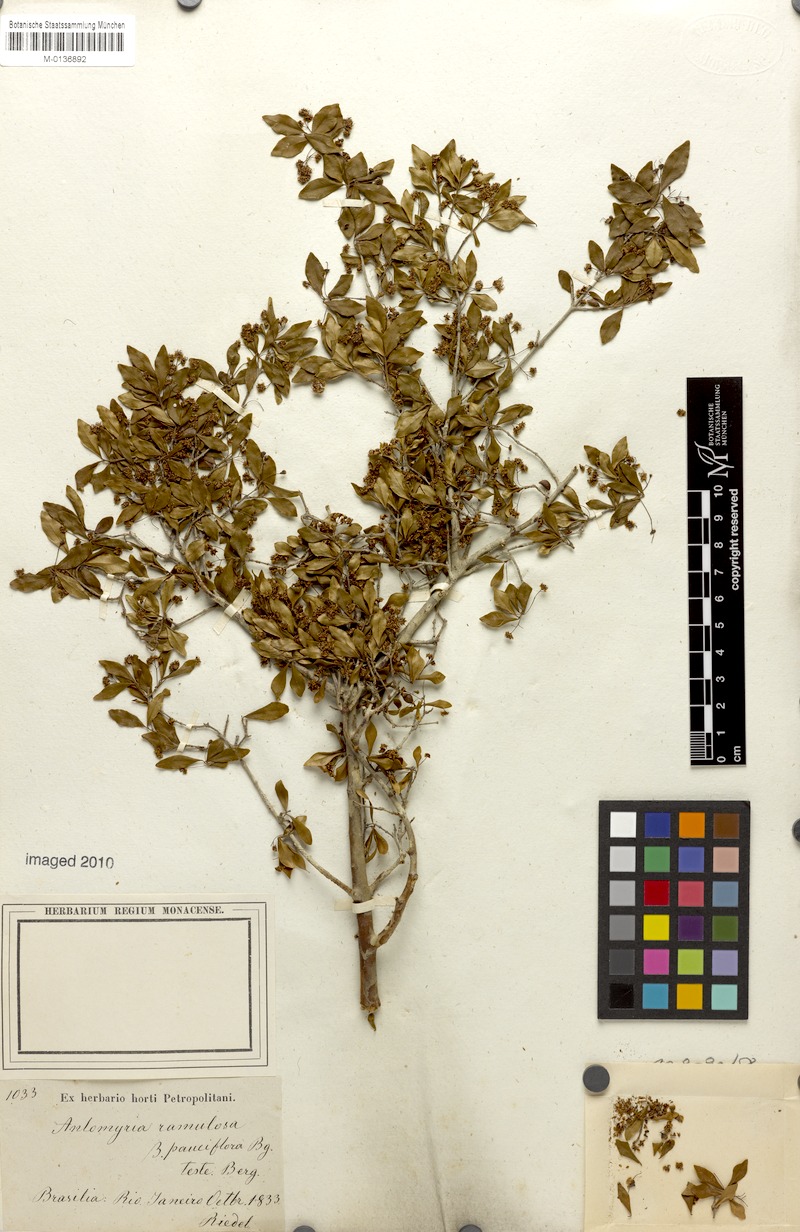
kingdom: Plantae
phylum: Tracheophyta
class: Magnoliopsida
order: Myrtales
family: Myrtaceae
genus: Myrcia
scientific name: Myrcia selloi
